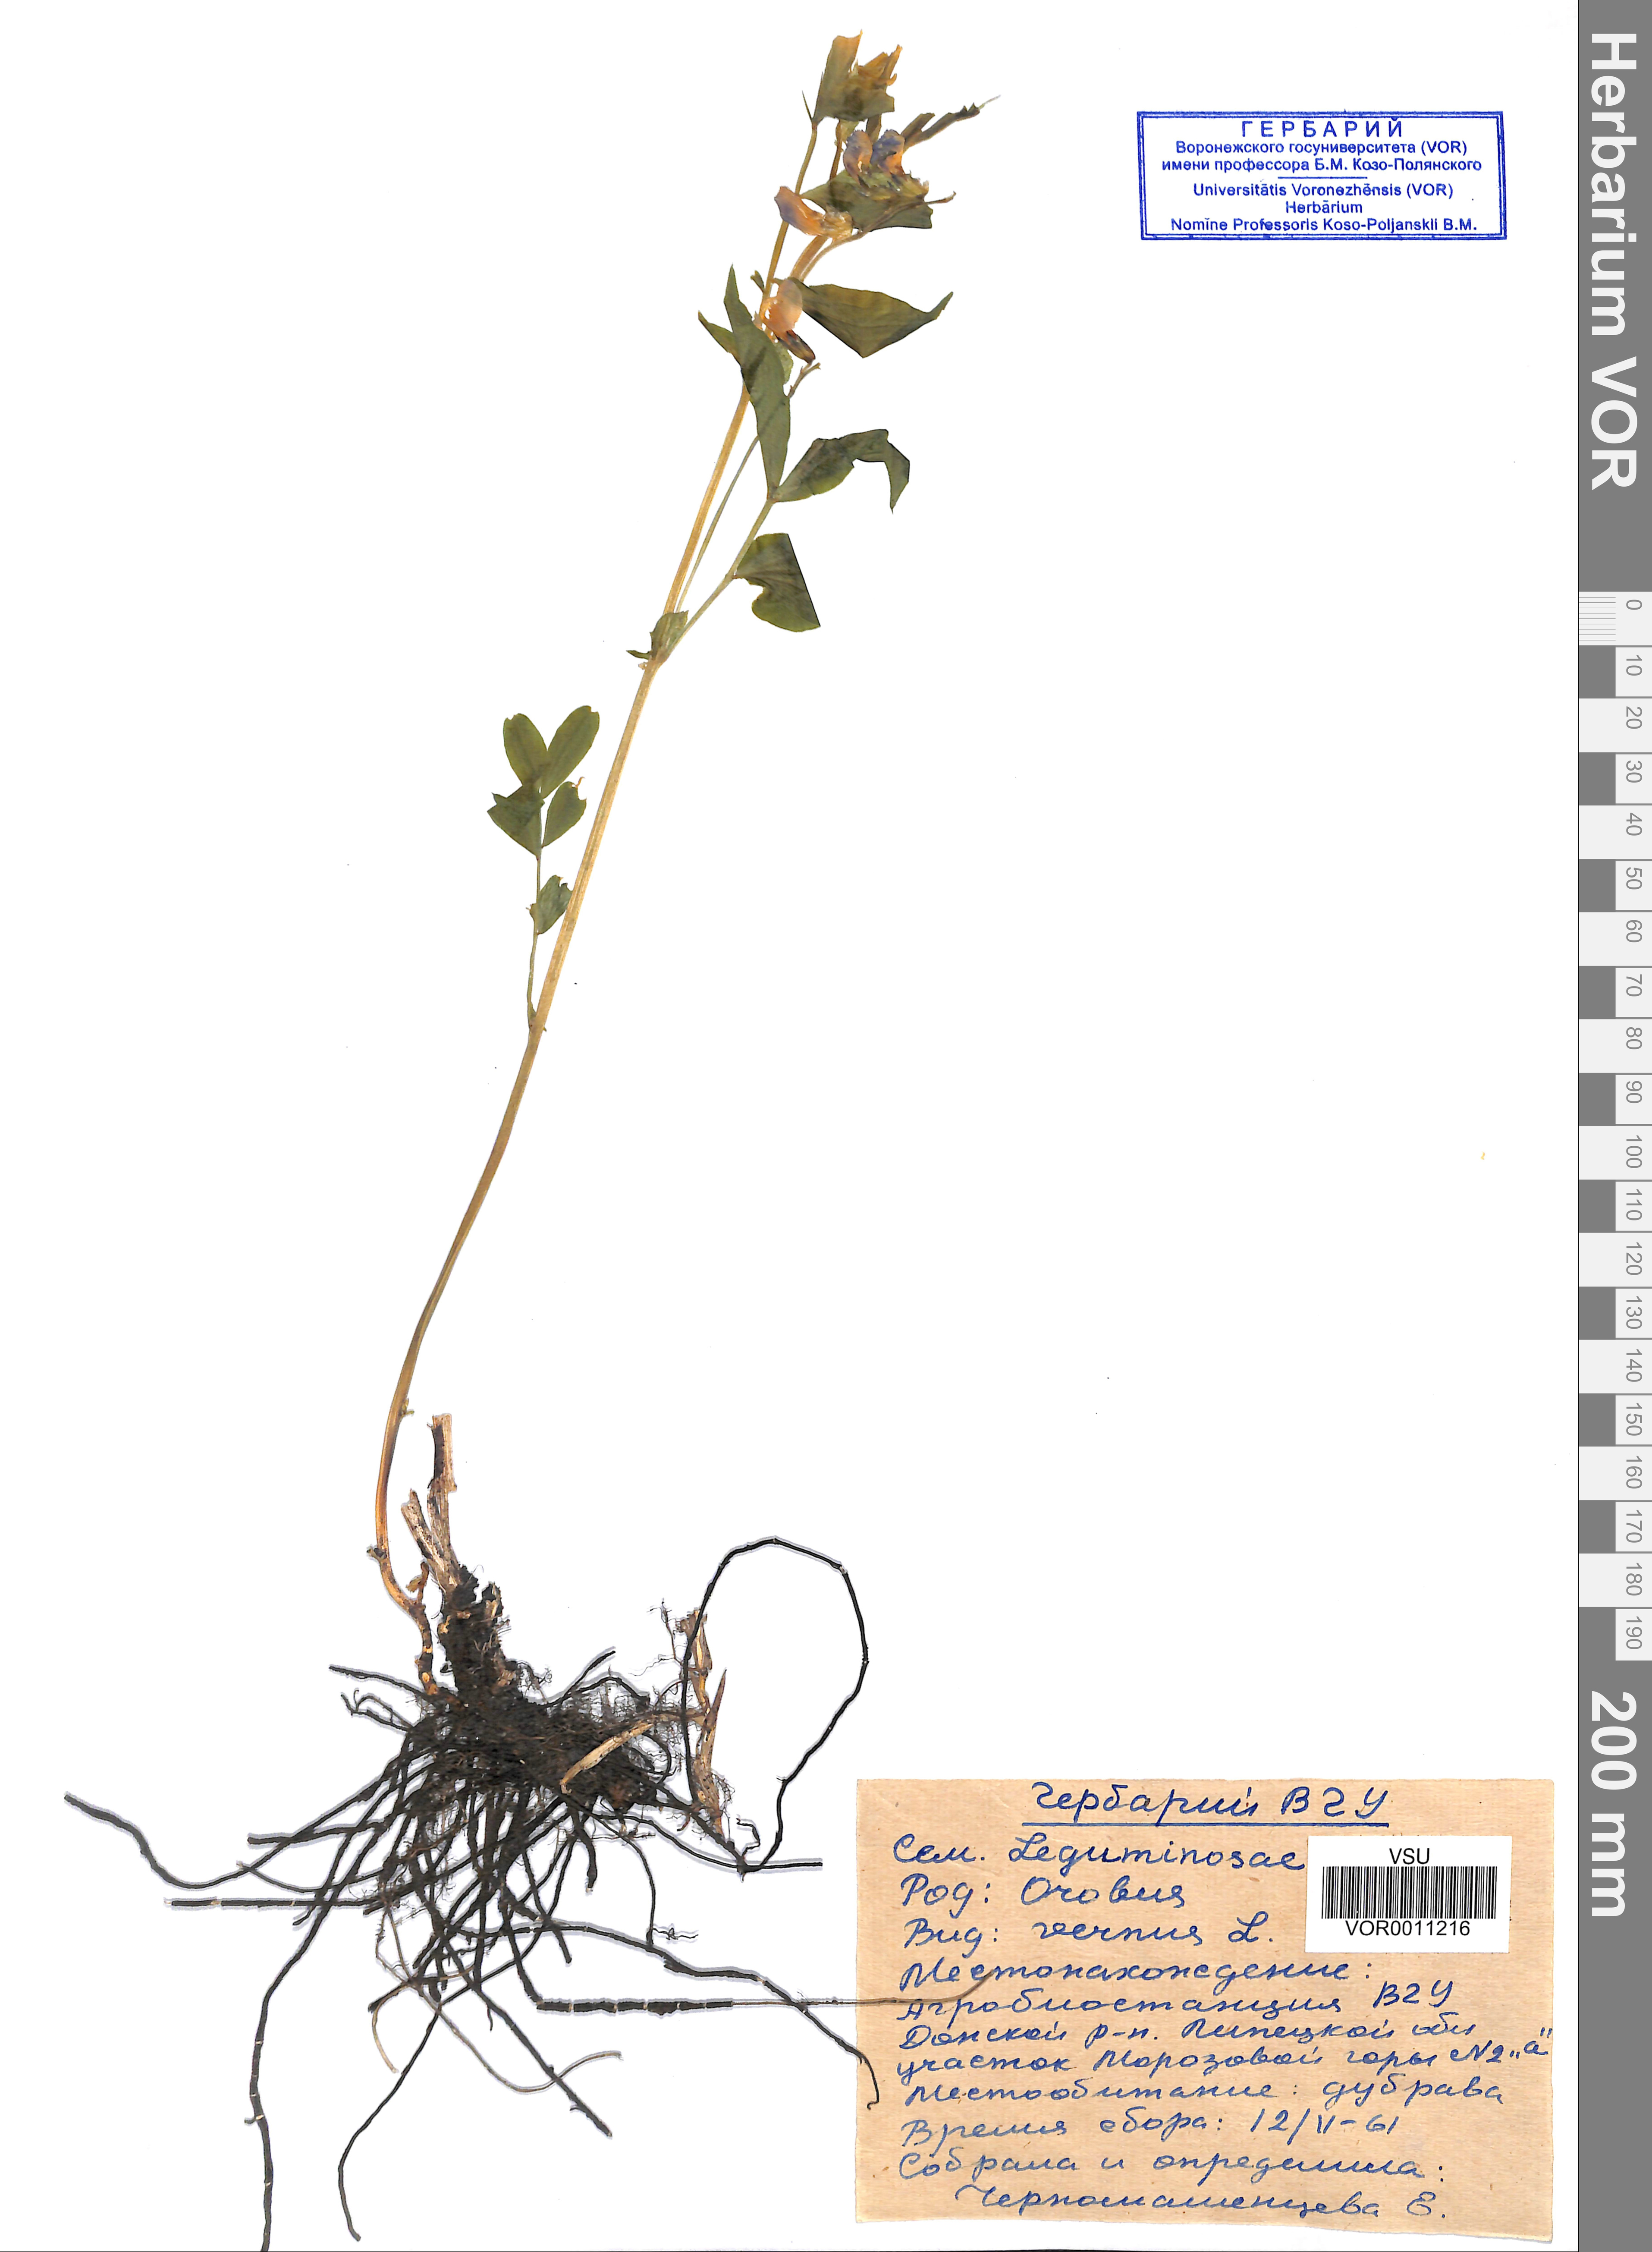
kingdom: Plantae
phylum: Tracheophyta
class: Magnoliopsida
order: Fabales
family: Fabaceae
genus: Lathyrus
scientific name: Lathyrus vernus
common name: Spring pea
